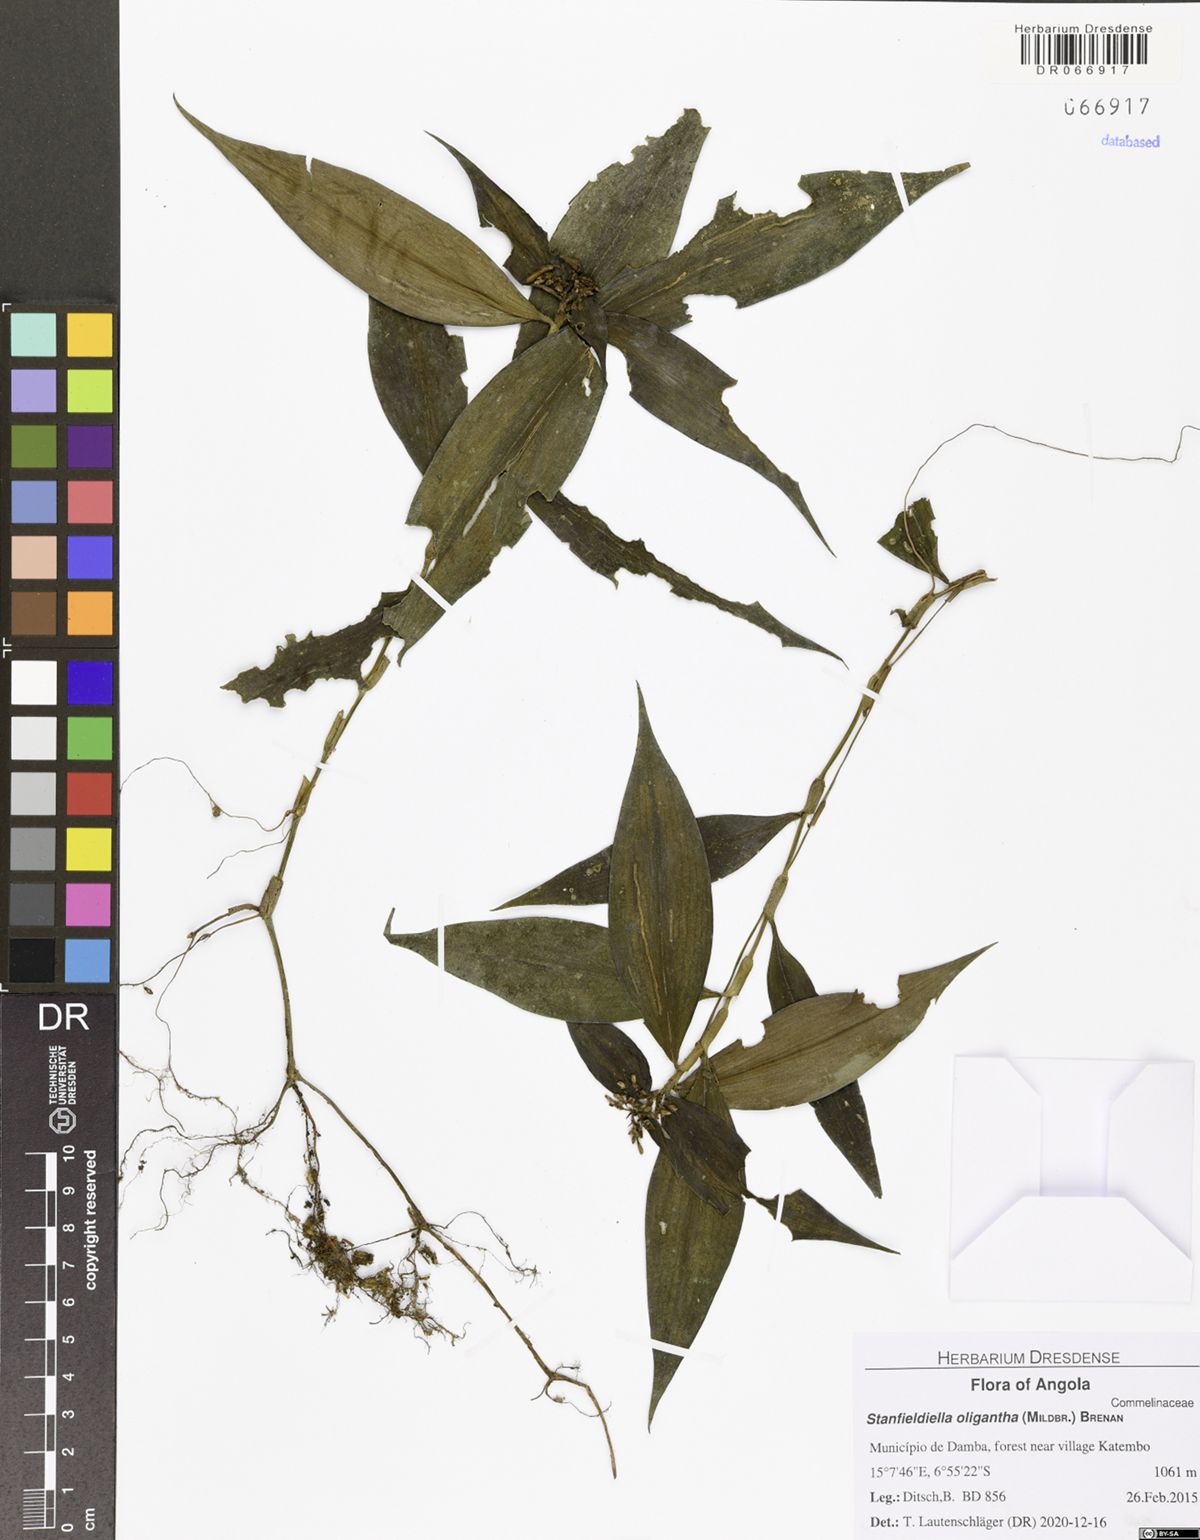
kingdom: Plantae
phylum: Tracheophyta
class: Liliopsida
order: Commelinales
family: Commelinaceae
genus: Stanfieldiella
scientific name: Stanfieldiella oligantha
